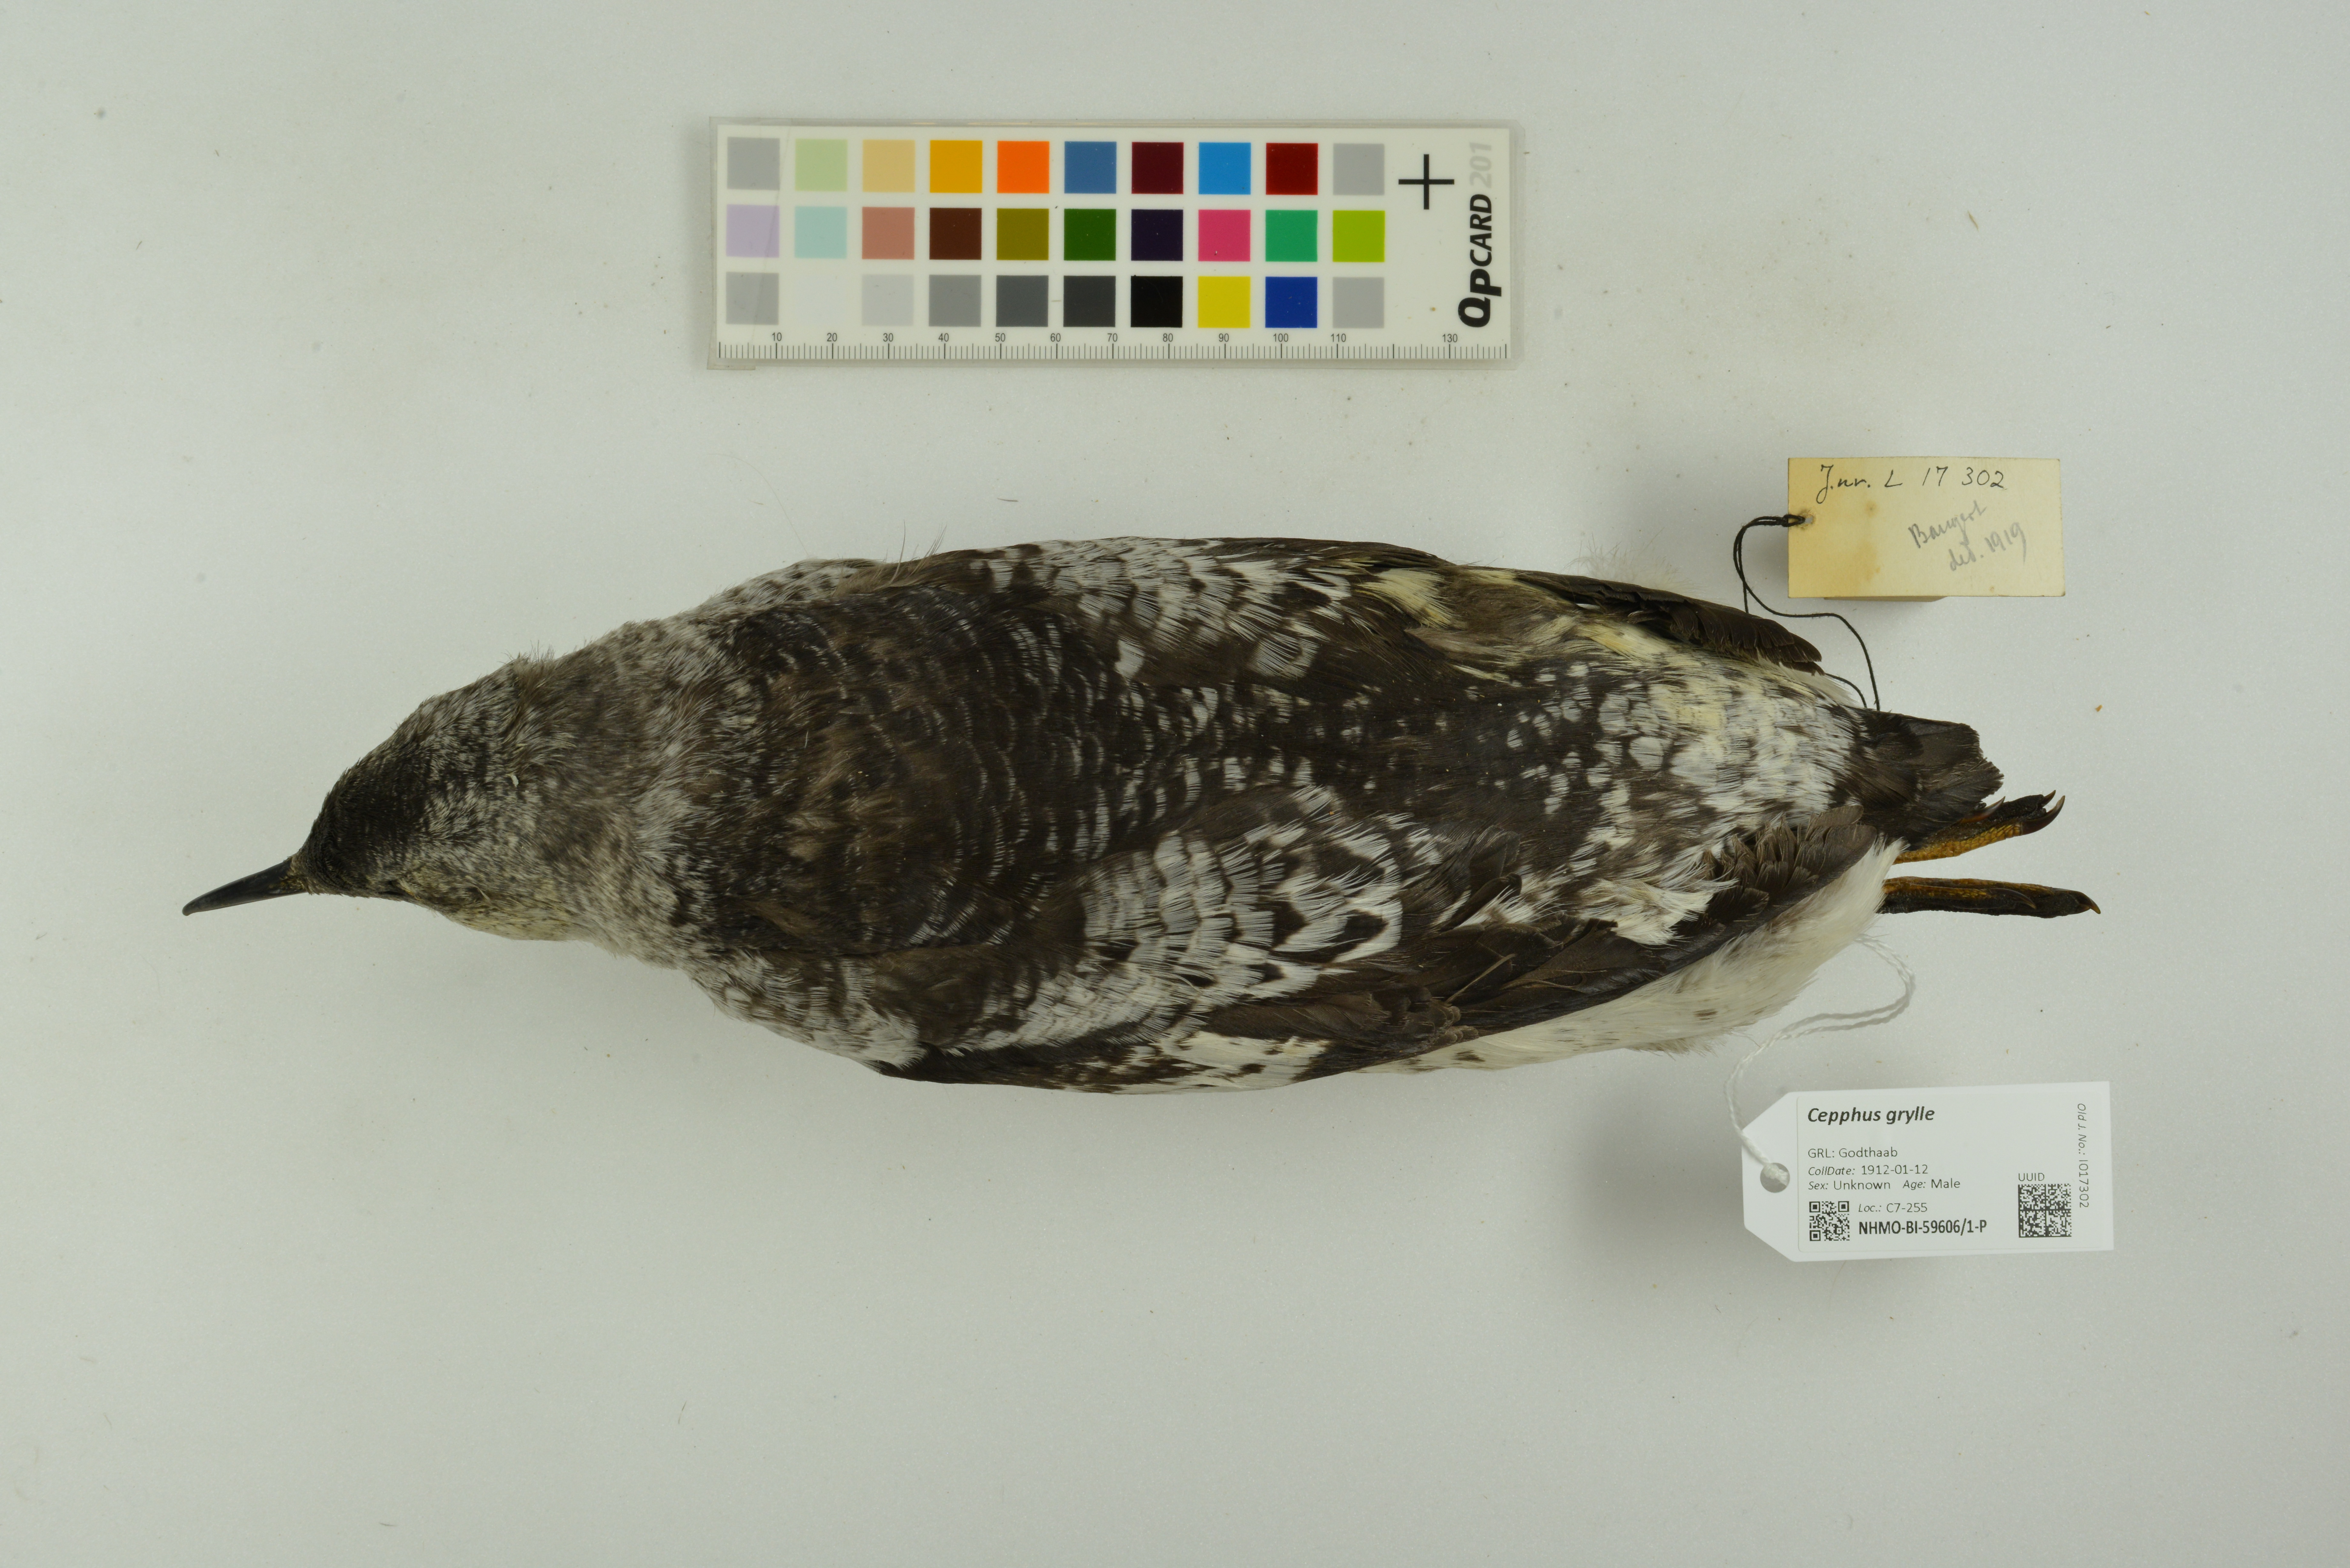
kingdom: Animalia
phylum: Chordata
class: Aves
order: Charadriiformes
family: Alcidae
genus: Cepphus
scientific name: Cepphus grylle
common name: Black guillemot
